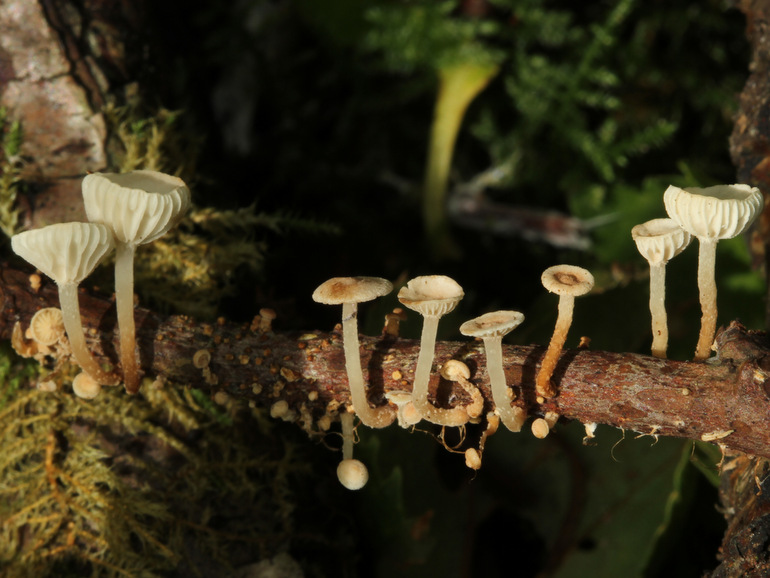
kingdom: Fungi
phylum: Basidiomycota
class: Agaricomycetes
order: Agaricales
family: Omphalotaceae
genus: Collybiopsis
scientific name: Collybiopsis ramealis
